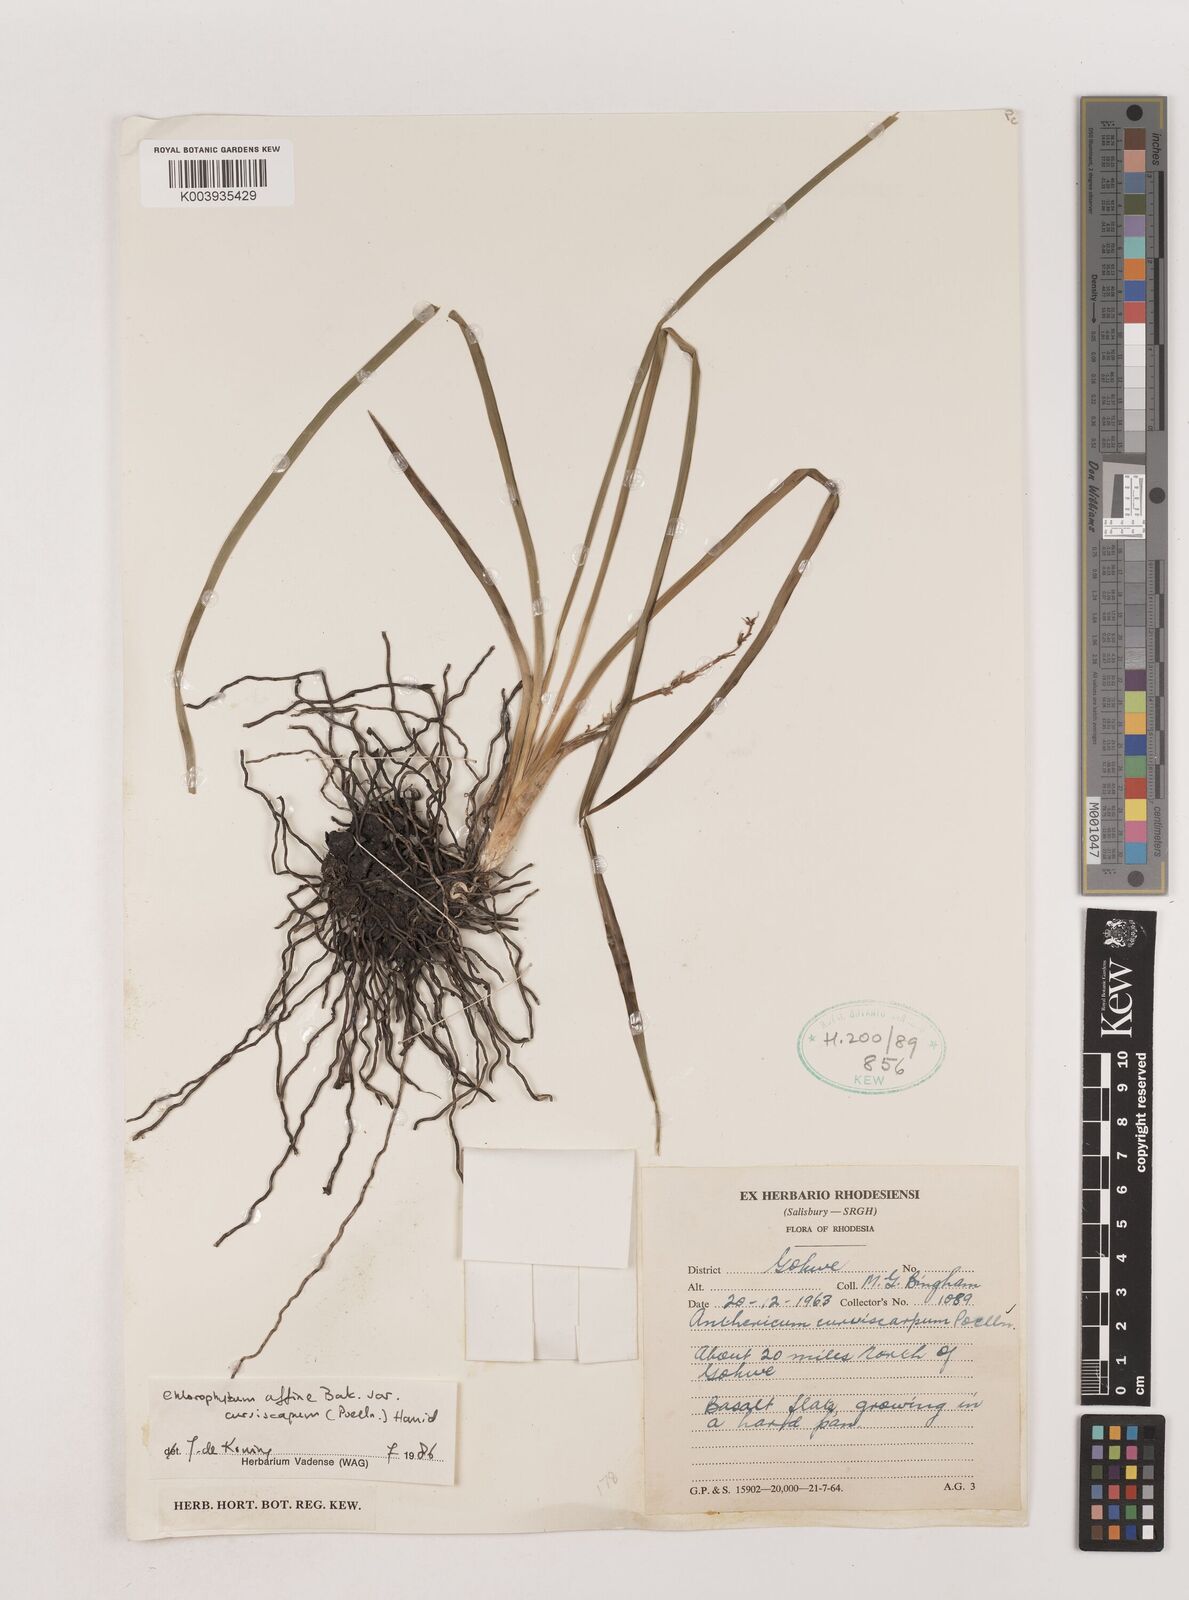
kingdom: Plantae
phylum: Tracheophyta
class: Liliopsida
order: Asparagales
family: Asparagaceae
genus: Chlorophytum
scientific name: Chlorophytum tordense
